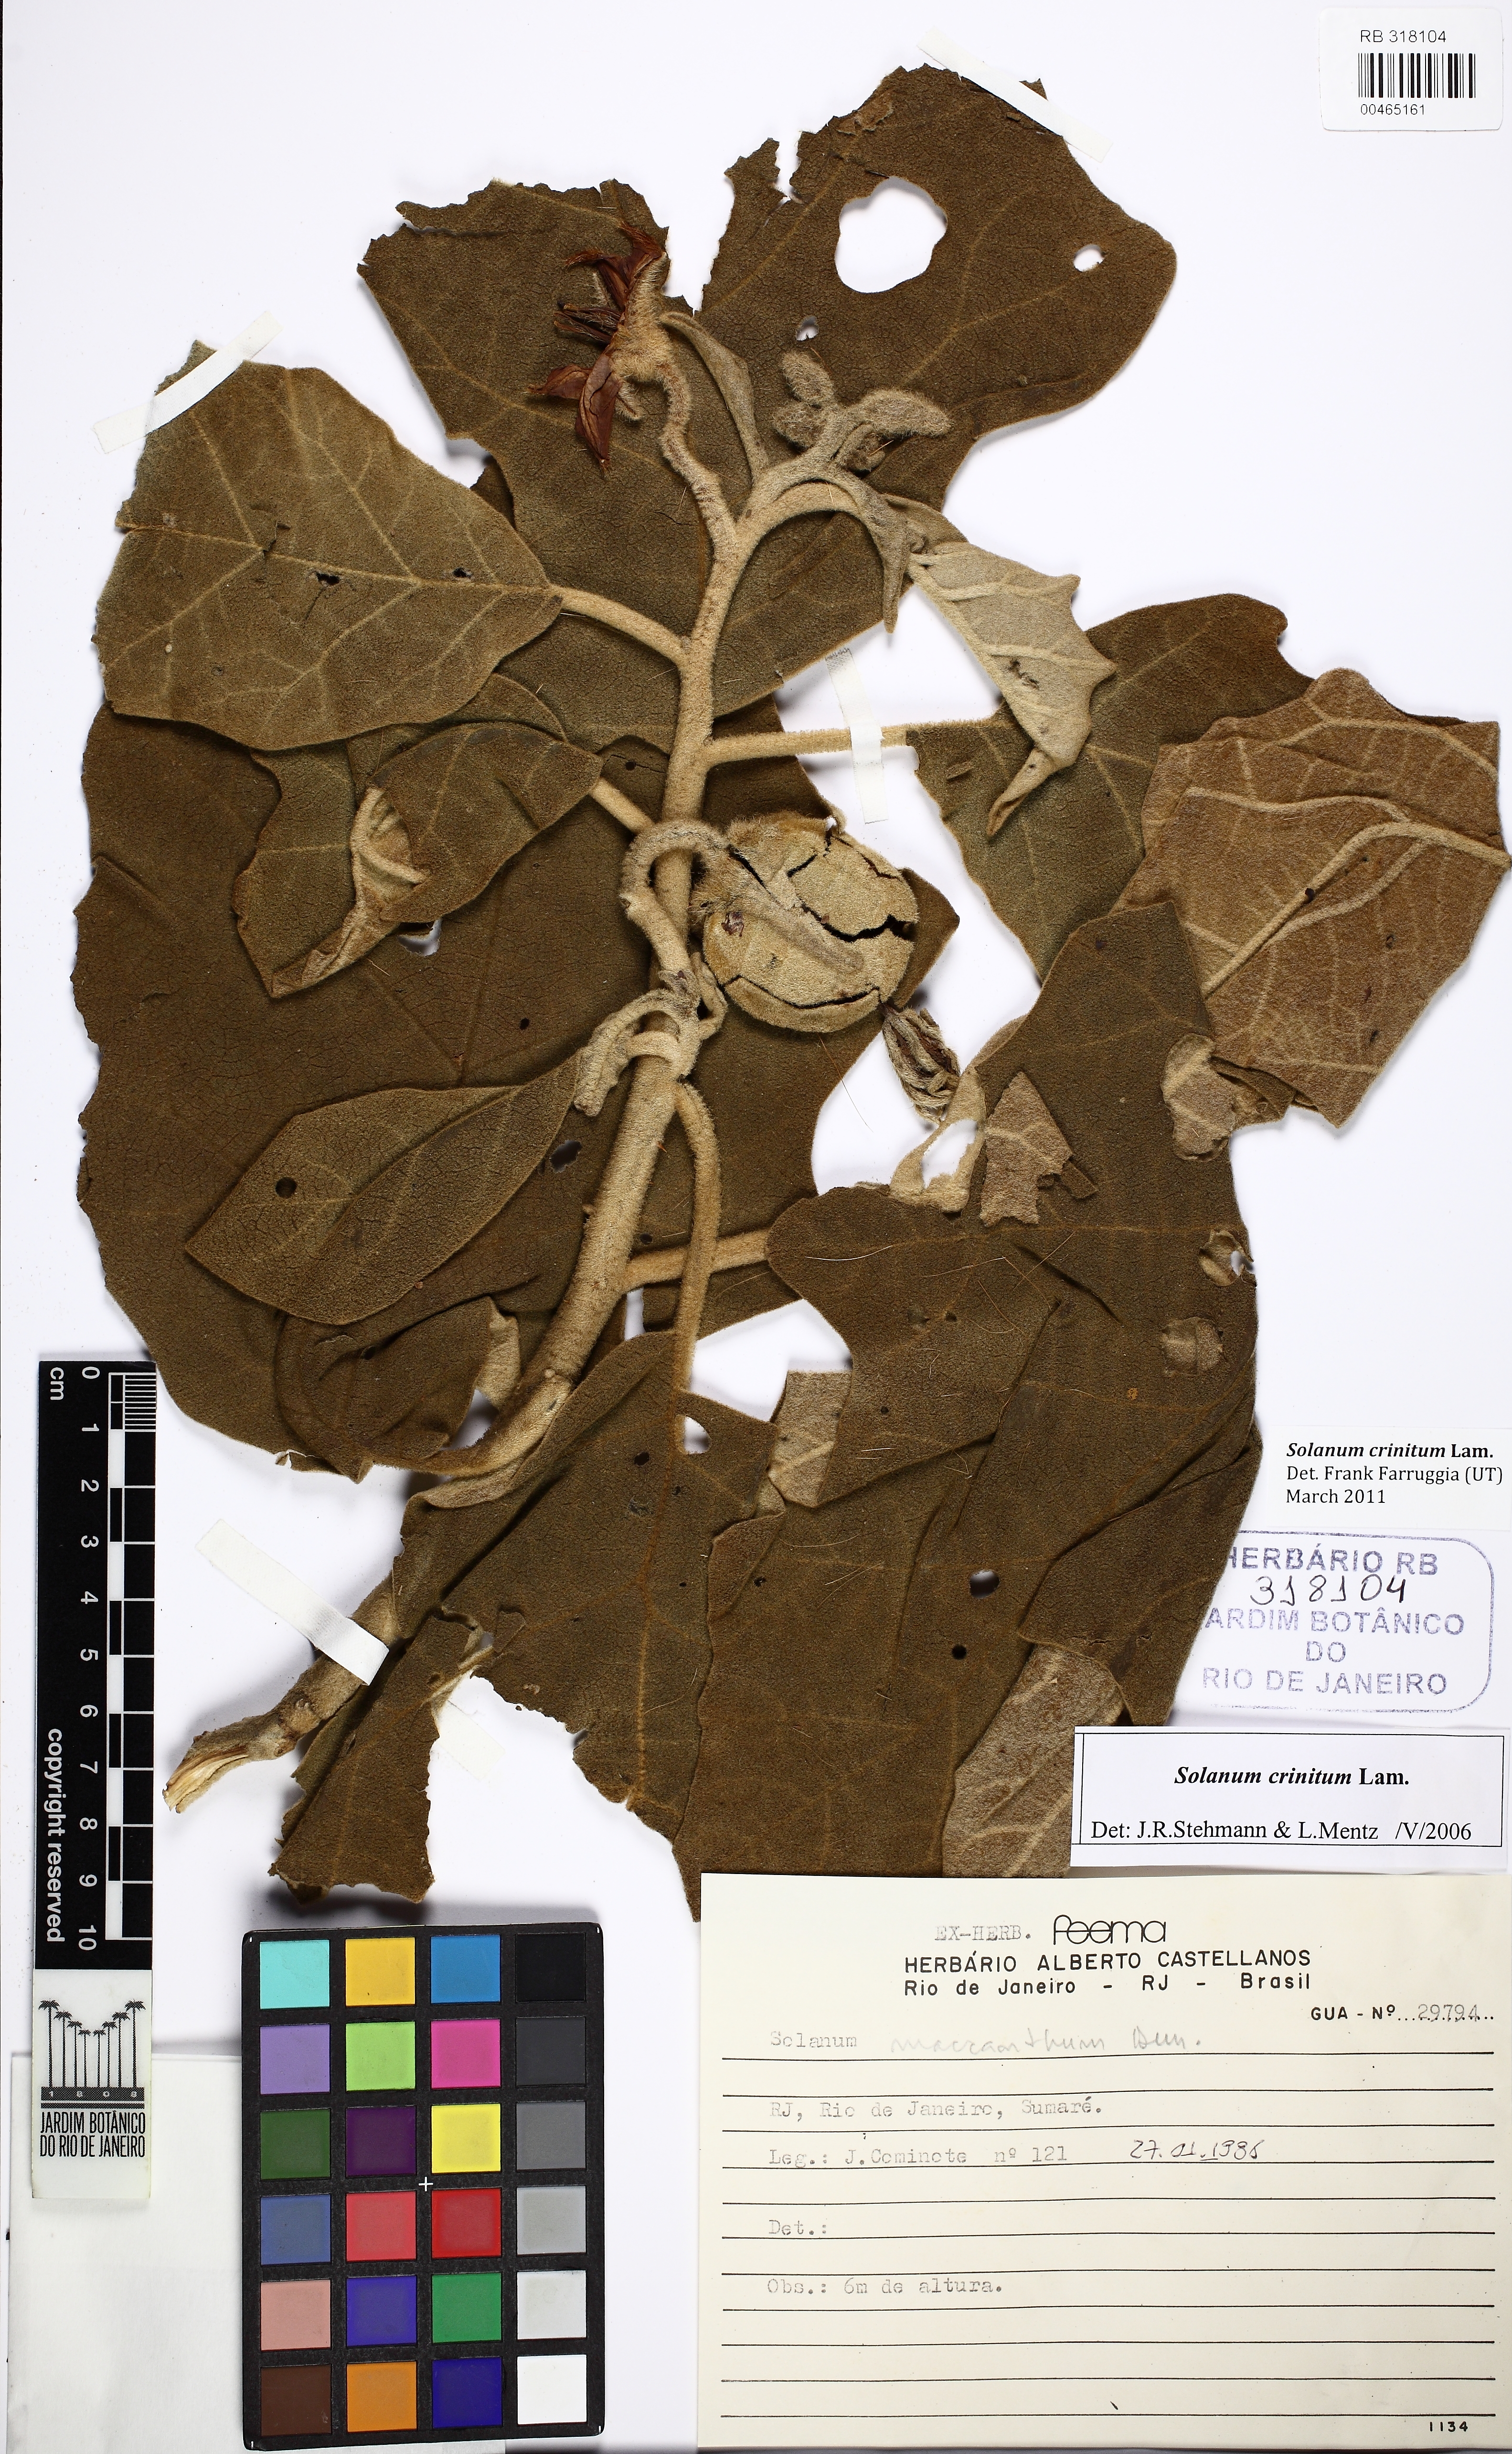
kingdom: Plantae
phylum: Tracheophyta
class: Magnoliopsida
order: Solanales
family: Solanaceae
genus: Solanum
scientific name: Solanum crinitum
